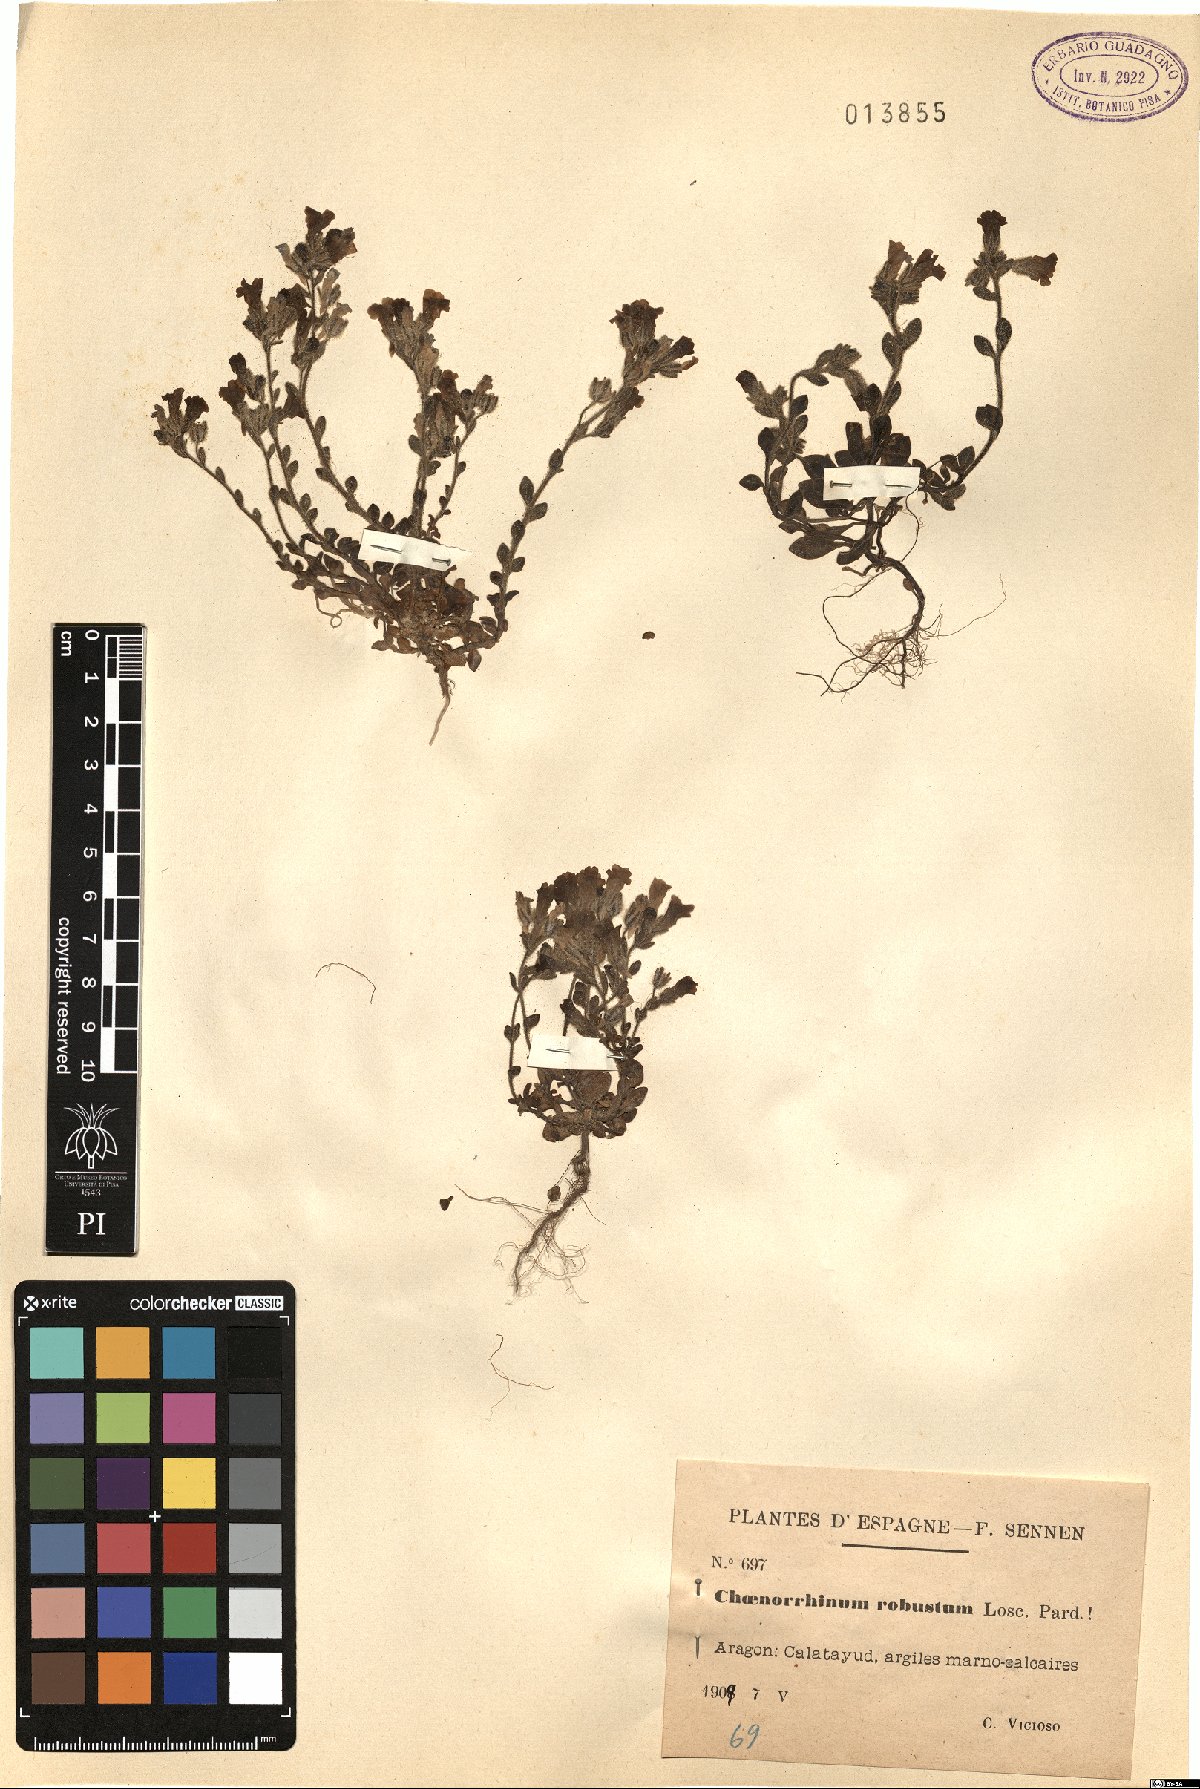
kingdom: Plantae
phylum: Tracheophyta
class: Magnoliopsida
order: Lamiales
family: Plantaginaceae
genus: Chaenorhinum
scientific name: Chaenorhinum robustum
